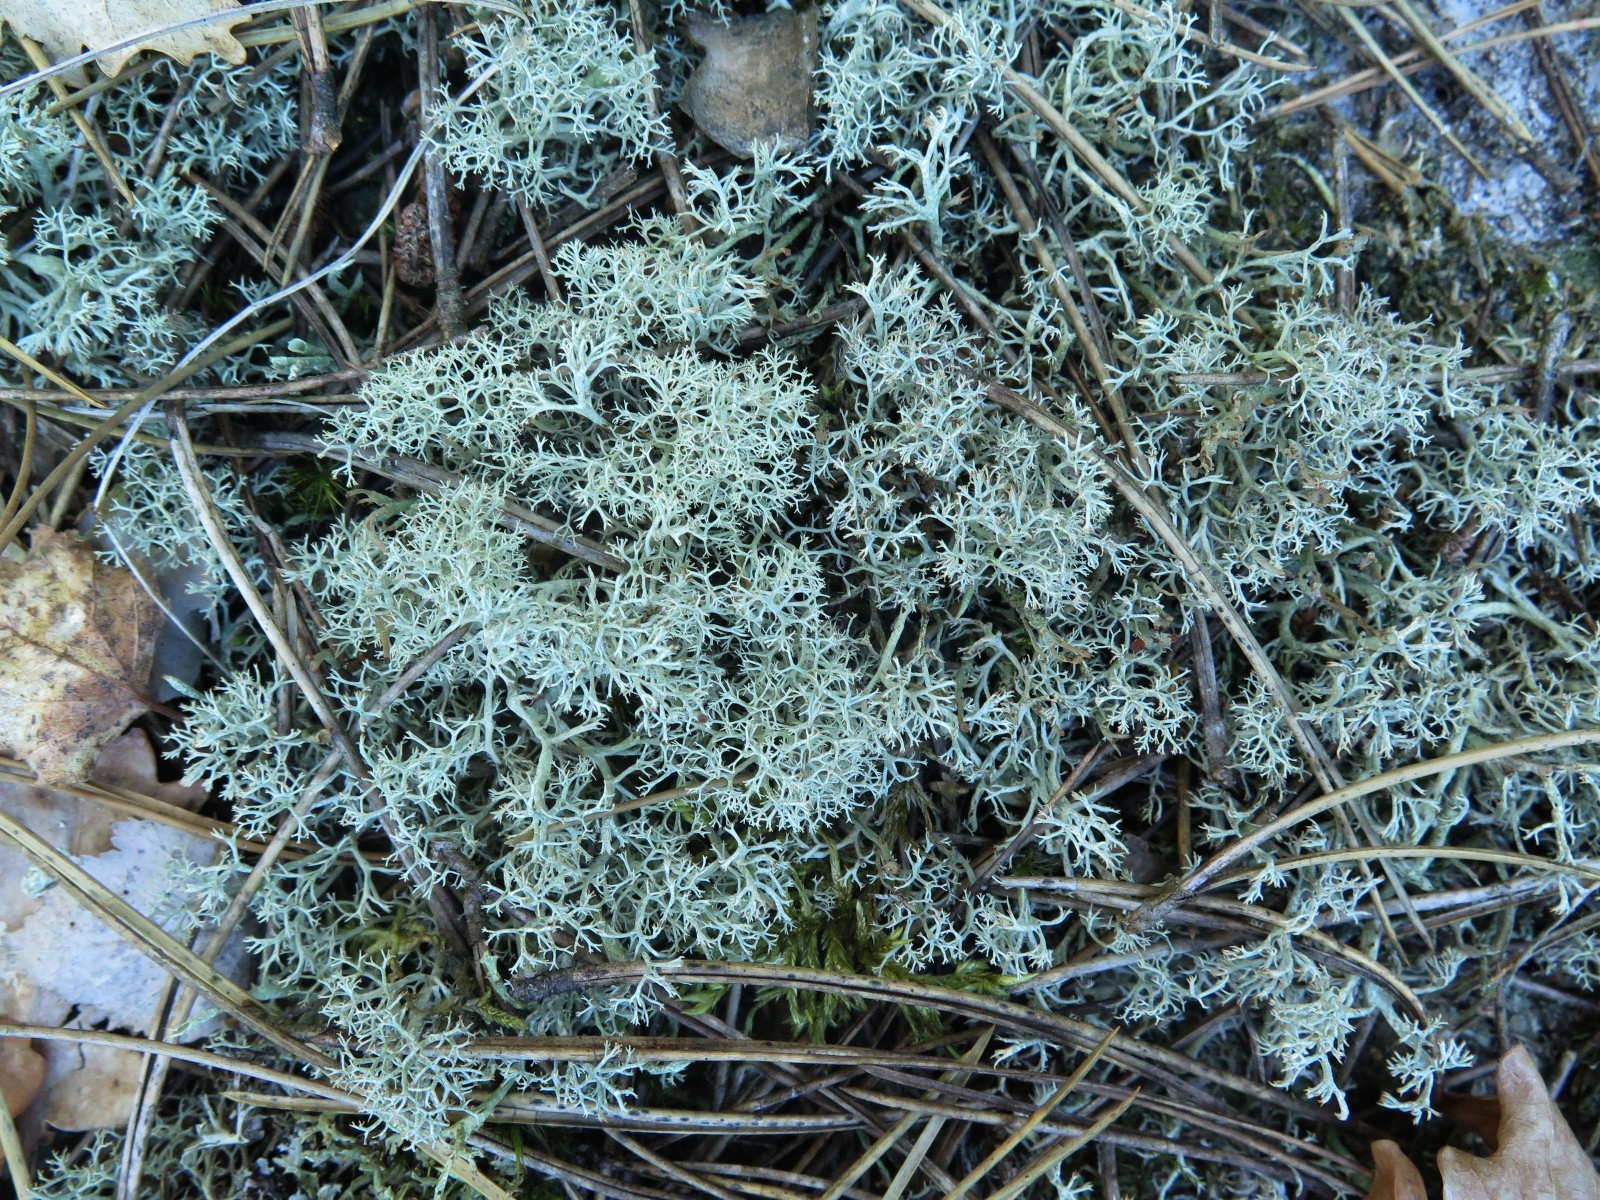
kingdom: Fungi
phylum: Ascomycota
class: Lecanoromycetes
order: Lecanorales
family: Cladoniaceae
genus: Cladonia
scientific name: Cladonia portentosa
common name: hede-rensdyrlav
